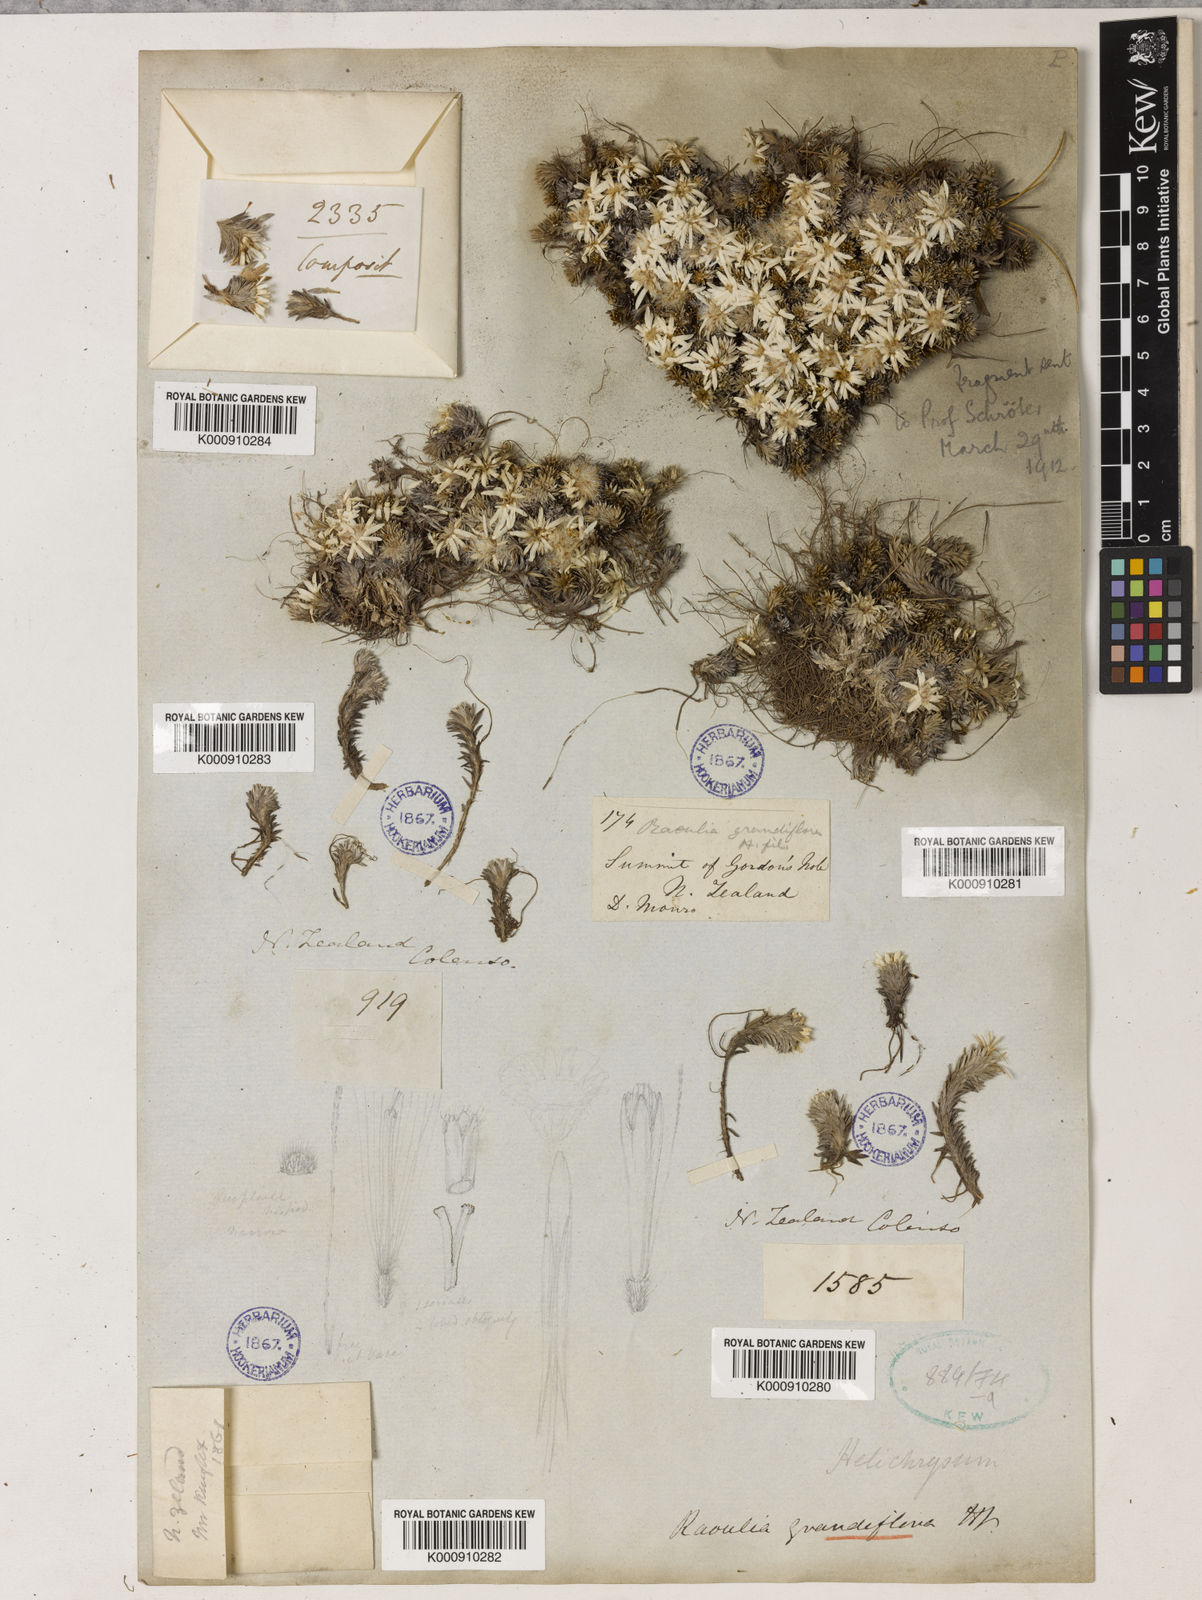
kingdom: Plantae
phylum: Tracheophyta
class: Magnoliopsida
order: Asterales
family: Asteraceae
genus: Raoulia
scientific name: Raoulia grandiflora
